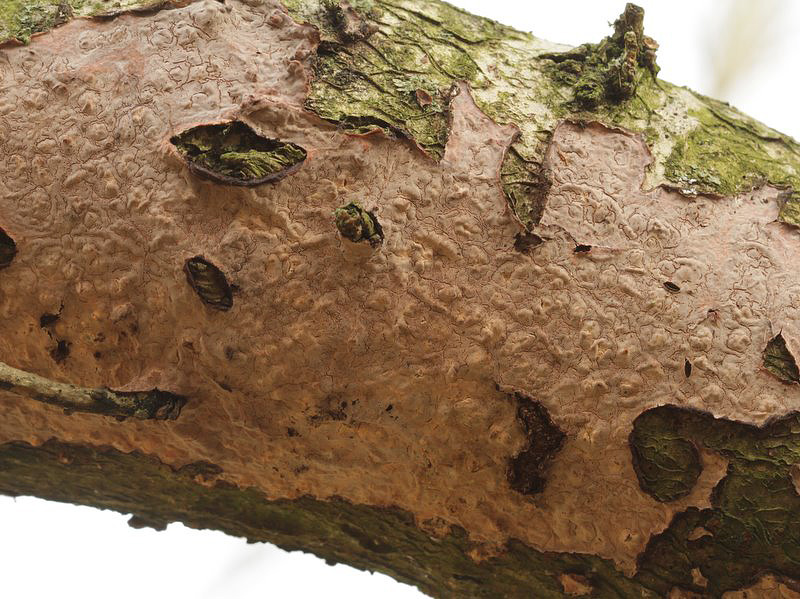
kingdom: Fungi
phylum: Basidiomycota
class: Agaricomycetes
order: Russulales
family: Peniophoraceae
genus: Peniophora
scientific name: Peniophora quercina
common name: ege-voksskind
